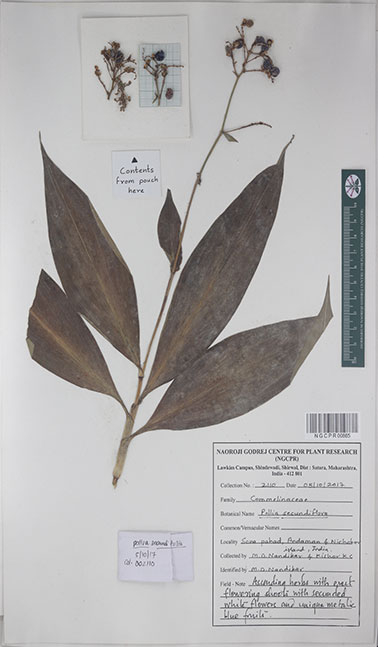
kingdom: Plantae
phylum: Tracheophyta
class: Liliopsida
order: Commelinales
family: Commelinaceae
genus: Pollia
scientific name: Pollia secundiflora
